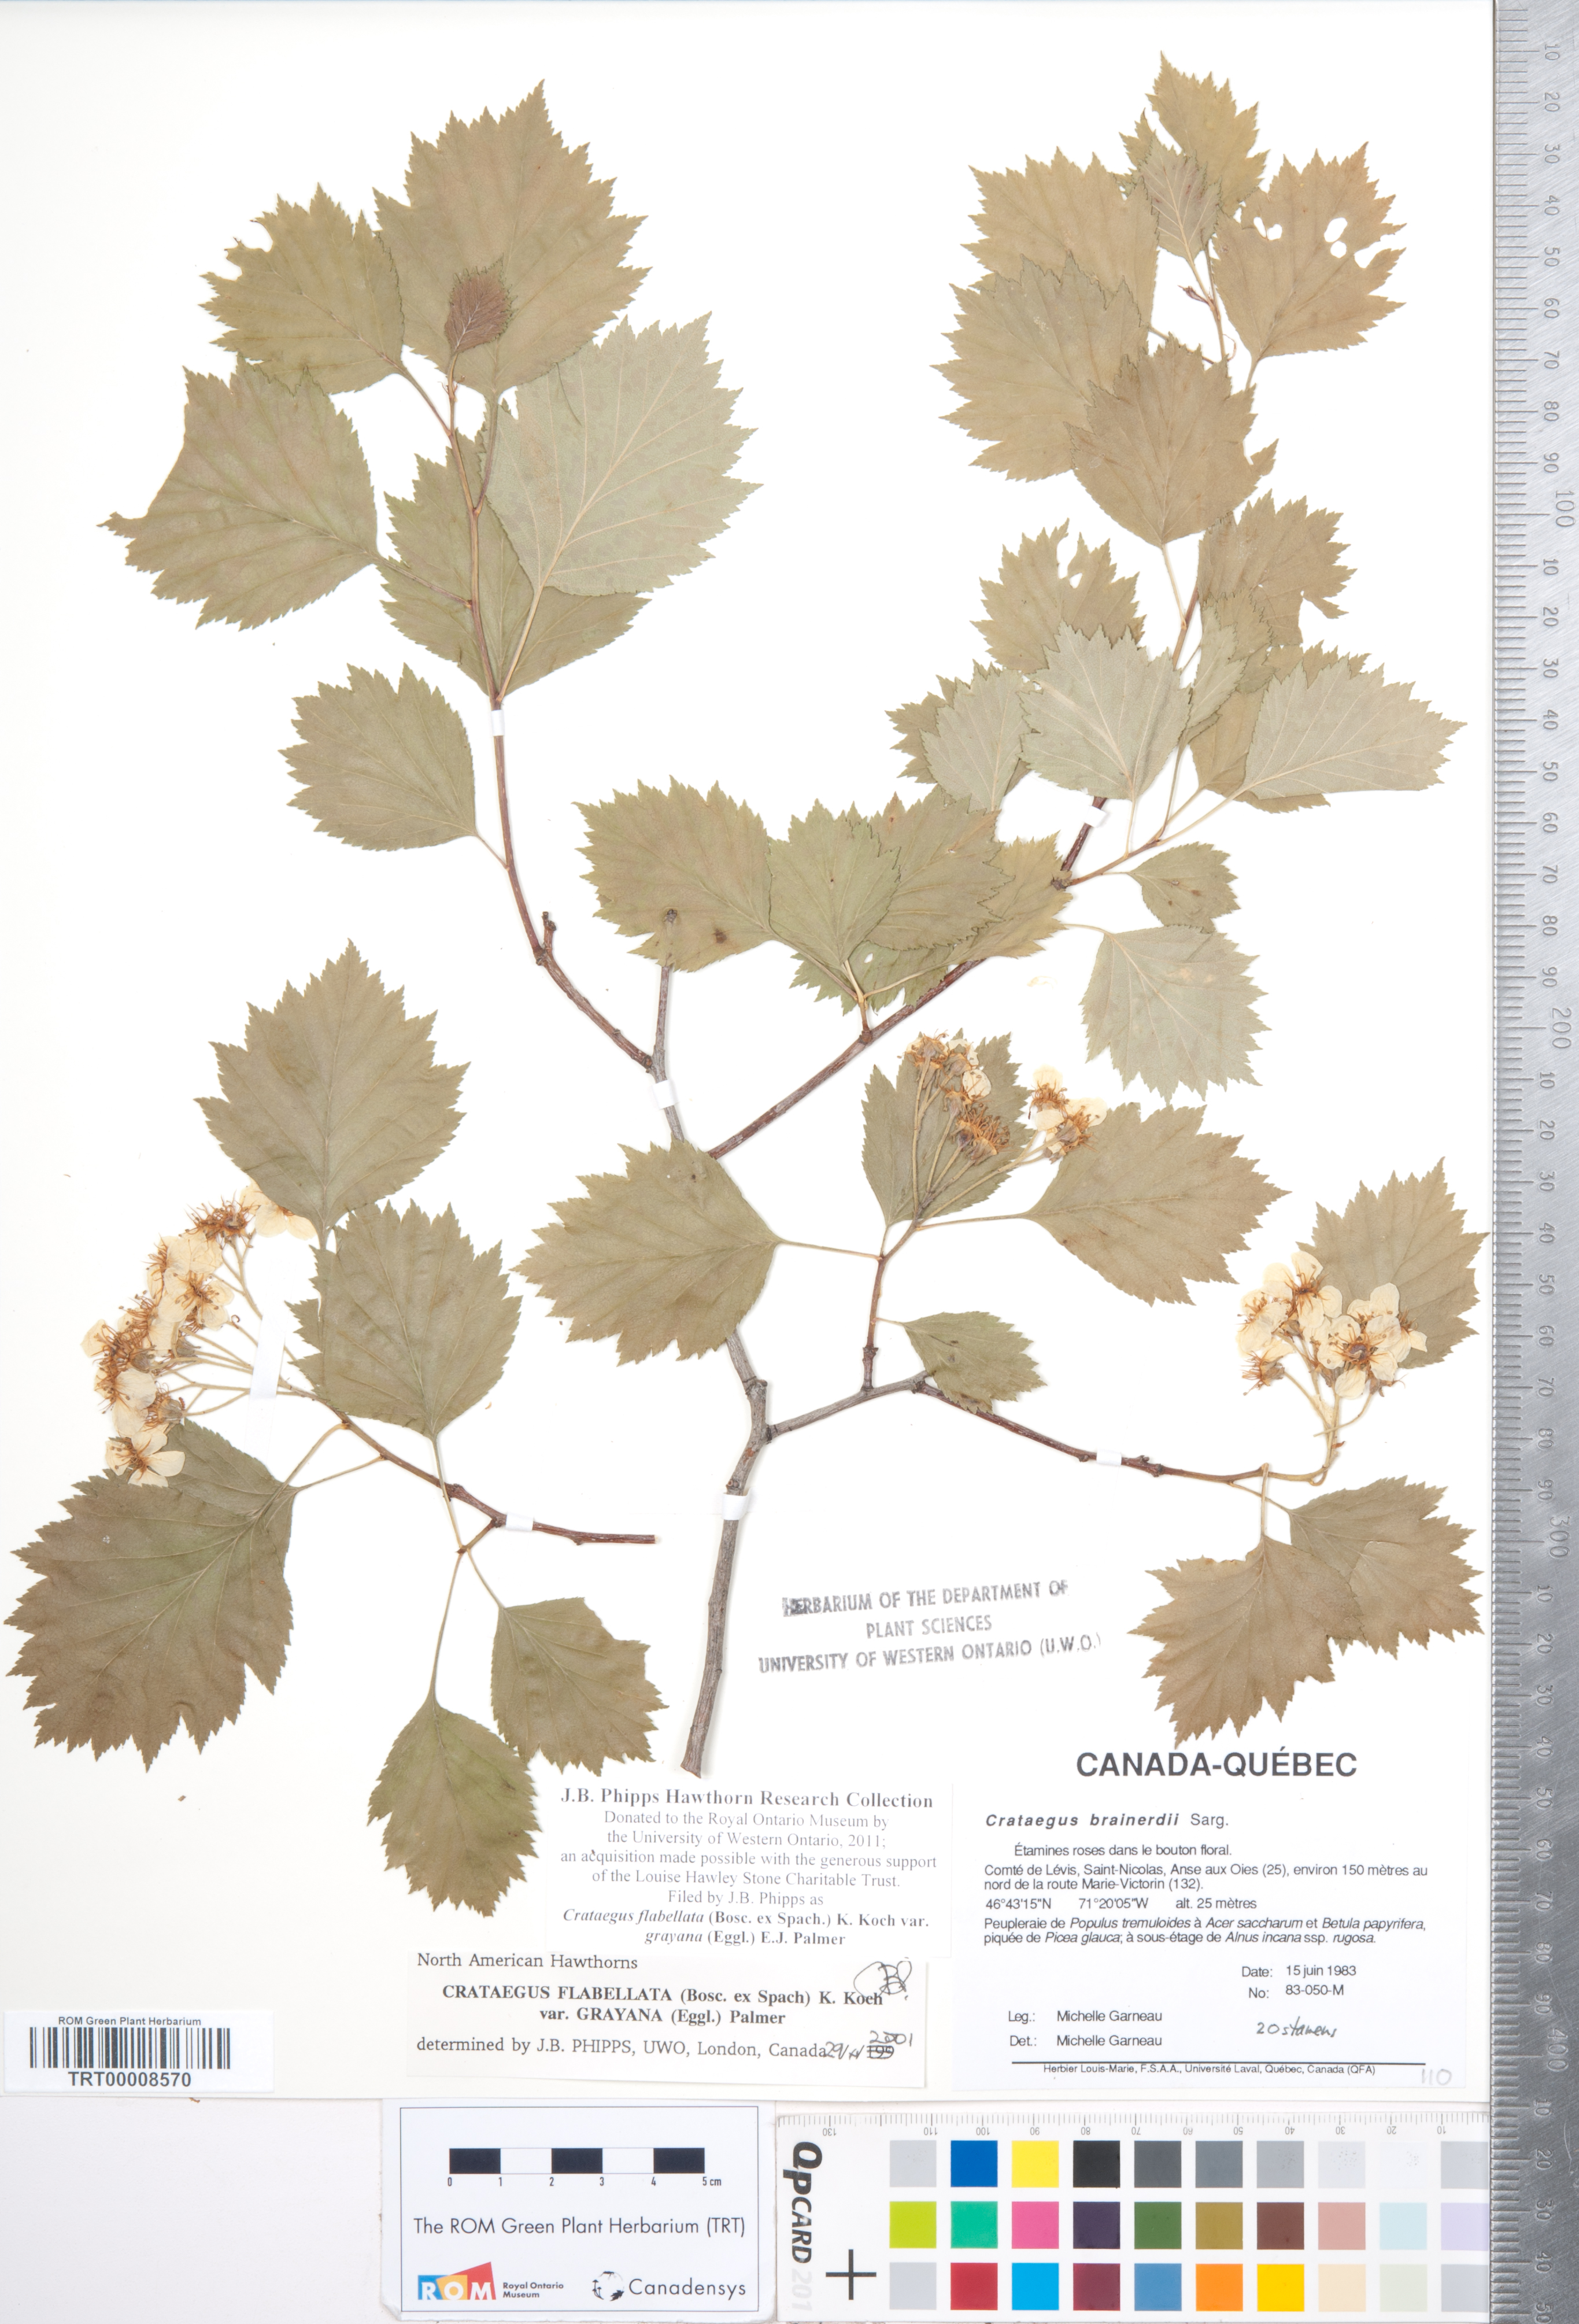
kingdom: Plantae
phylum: Tracheophyta
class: Magnoliopsida
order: Rosales
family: Rosaceae
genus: Crataegus
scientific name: Crataegus flabellata
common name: Bosc's hawthorn
